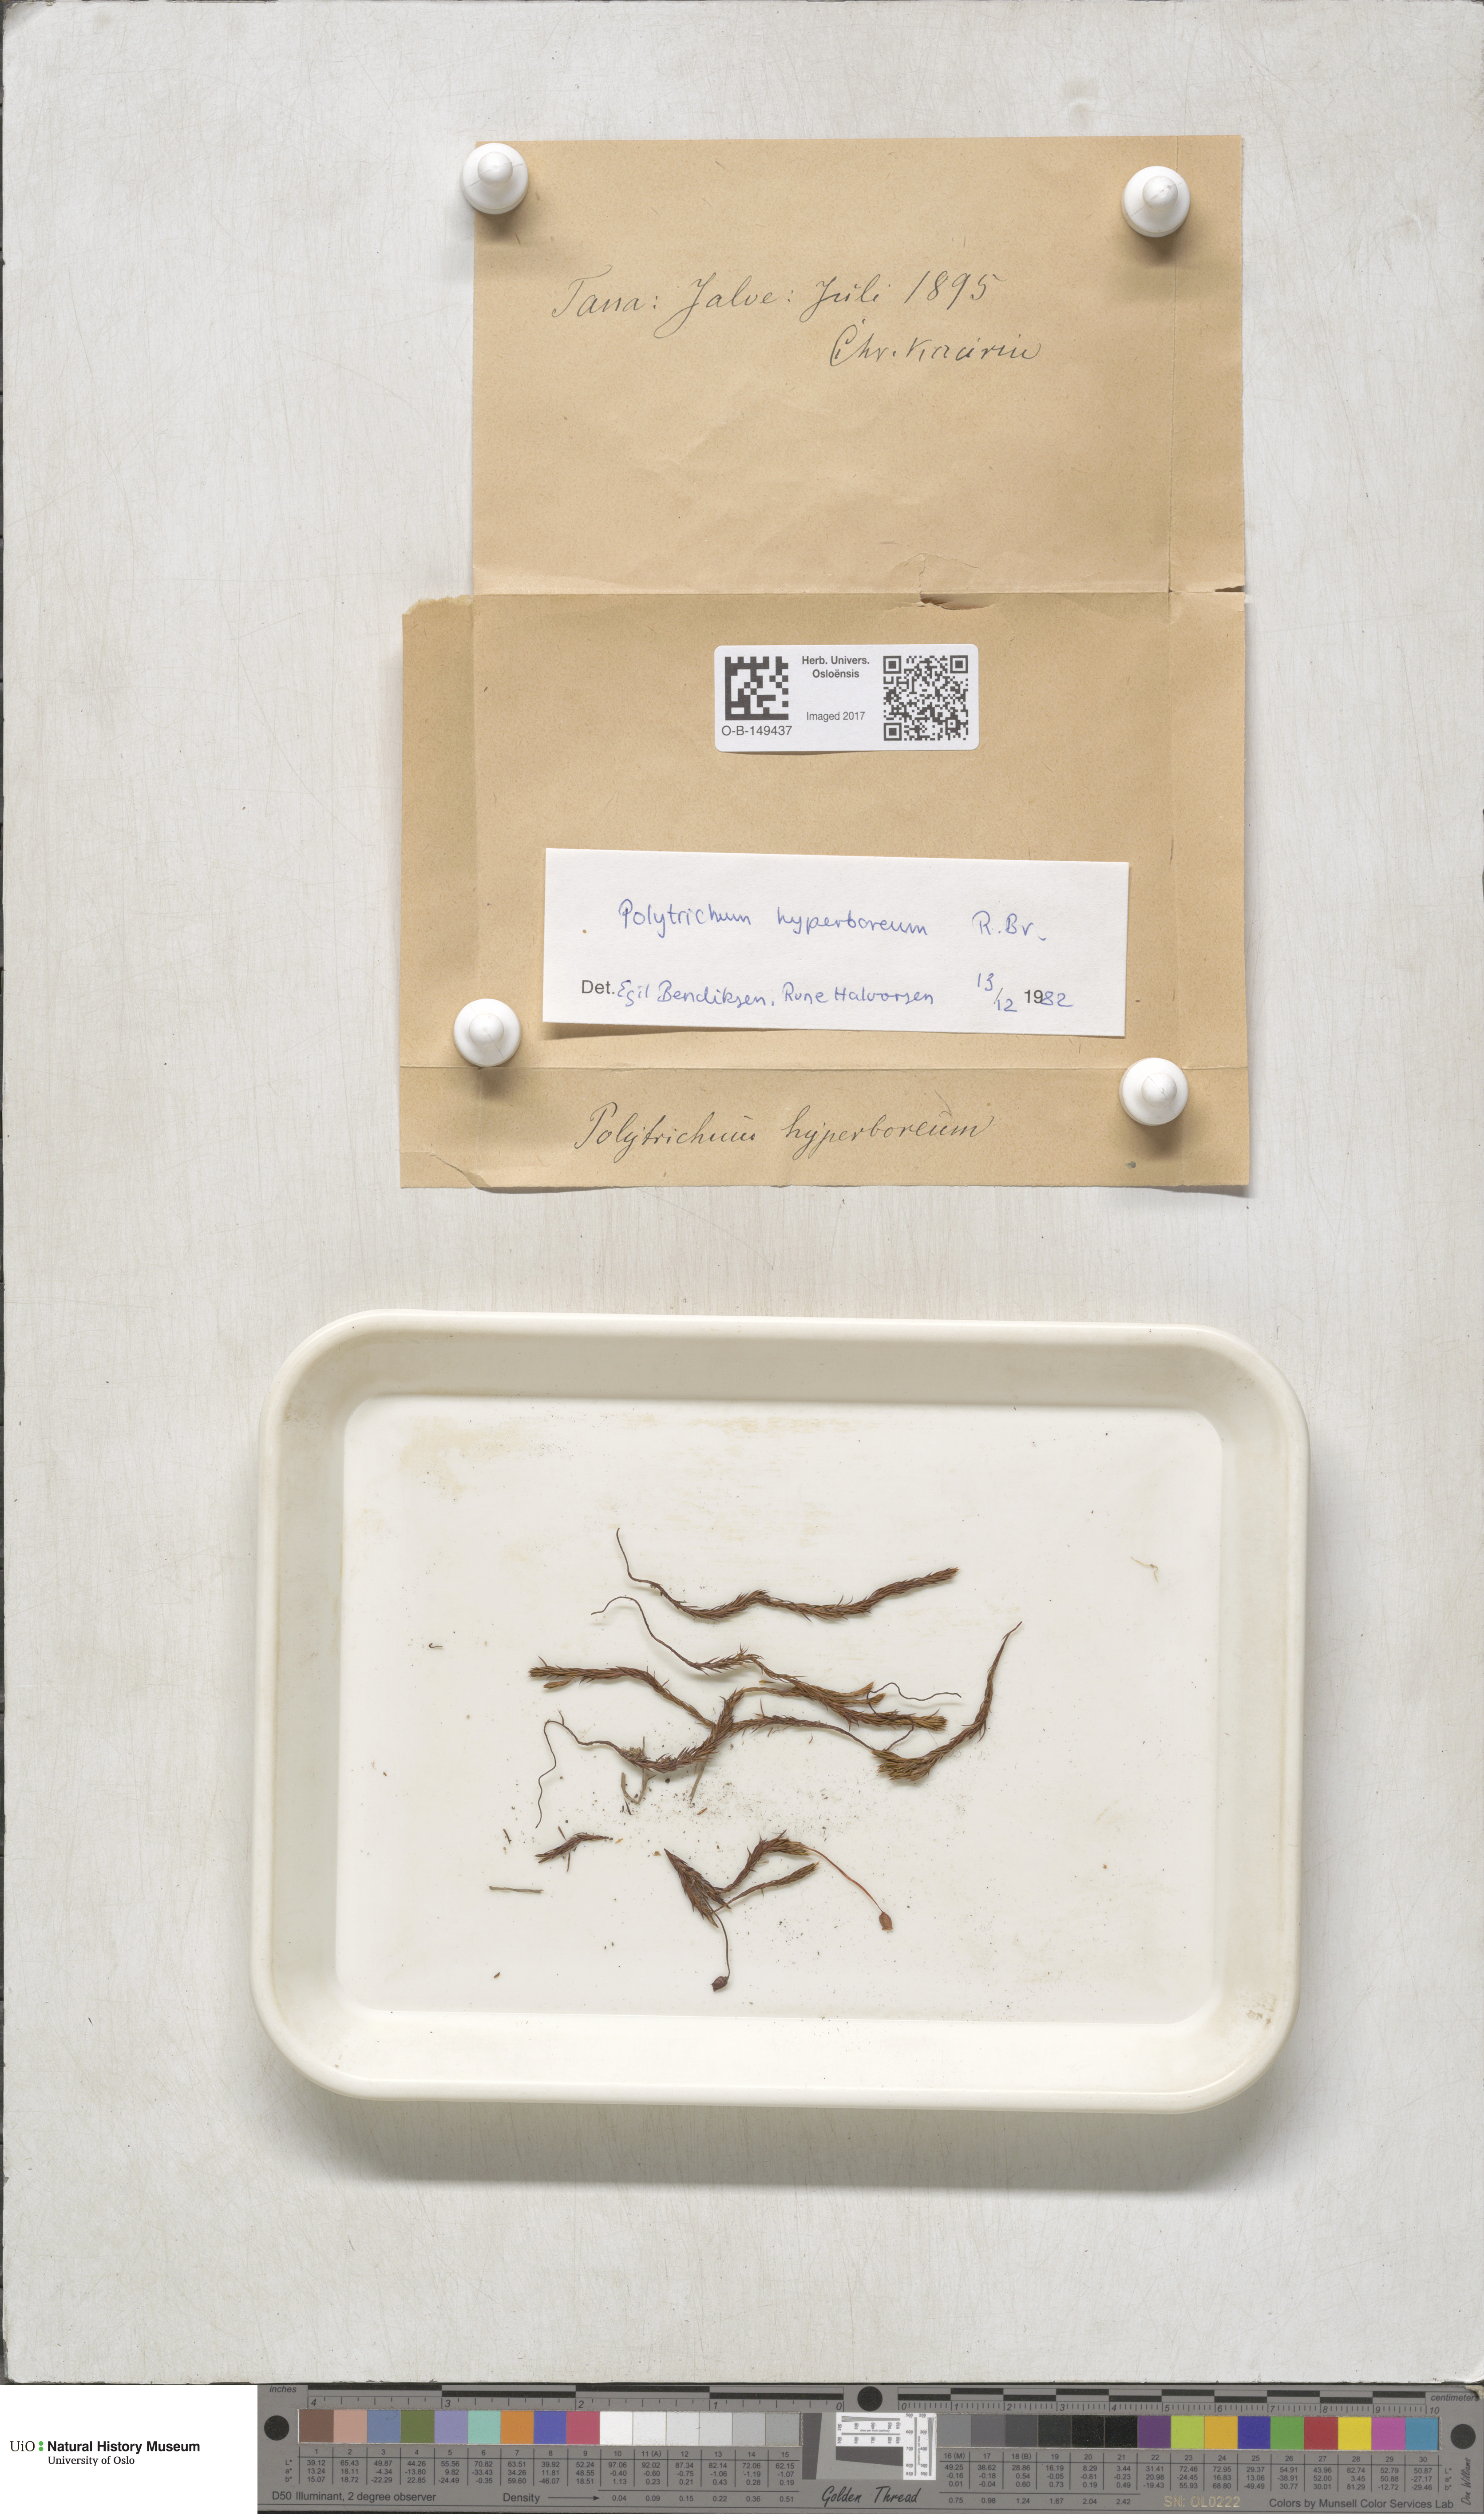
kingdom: Plantae
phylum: Bryophyta
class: Polytrichopsida
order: Polytrichales
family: Polytrichaceae
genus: Polytrichum
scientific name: Polytrichum hyperboreum
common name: Hyperboreal haircap moss
